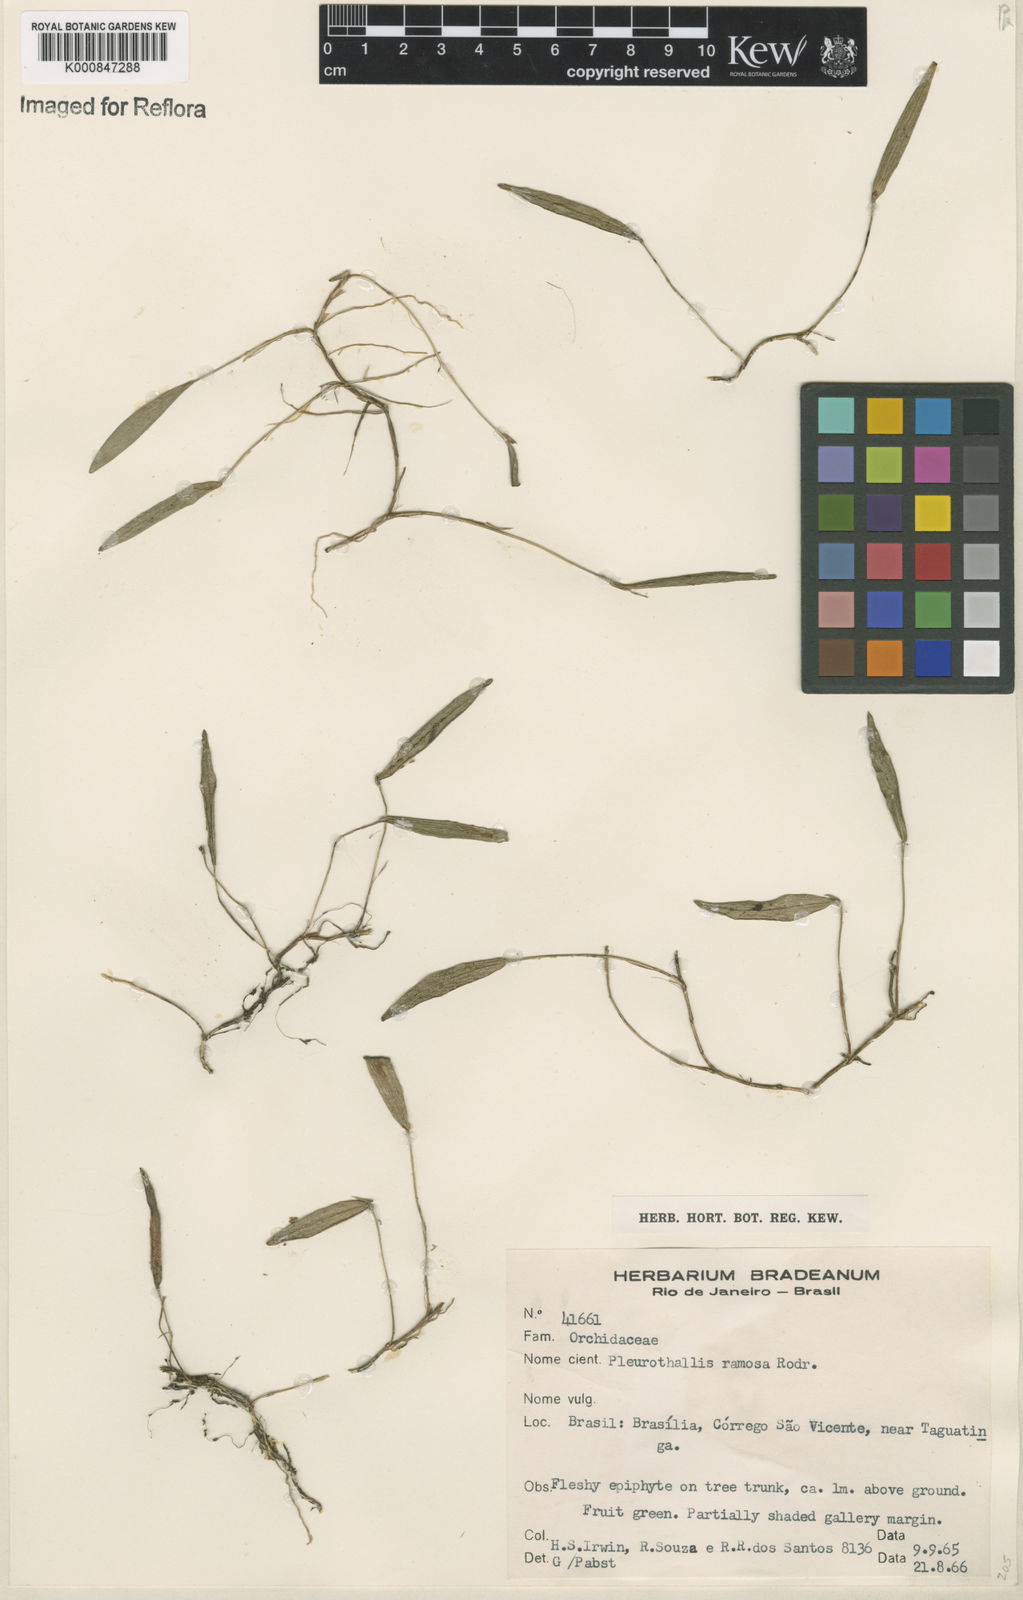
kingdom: Plantae
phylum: Tracheophyta
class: Liliopsida
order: Asparagales
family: Orchidaceae
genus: Acianthera
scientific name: Acianthera ramosa
